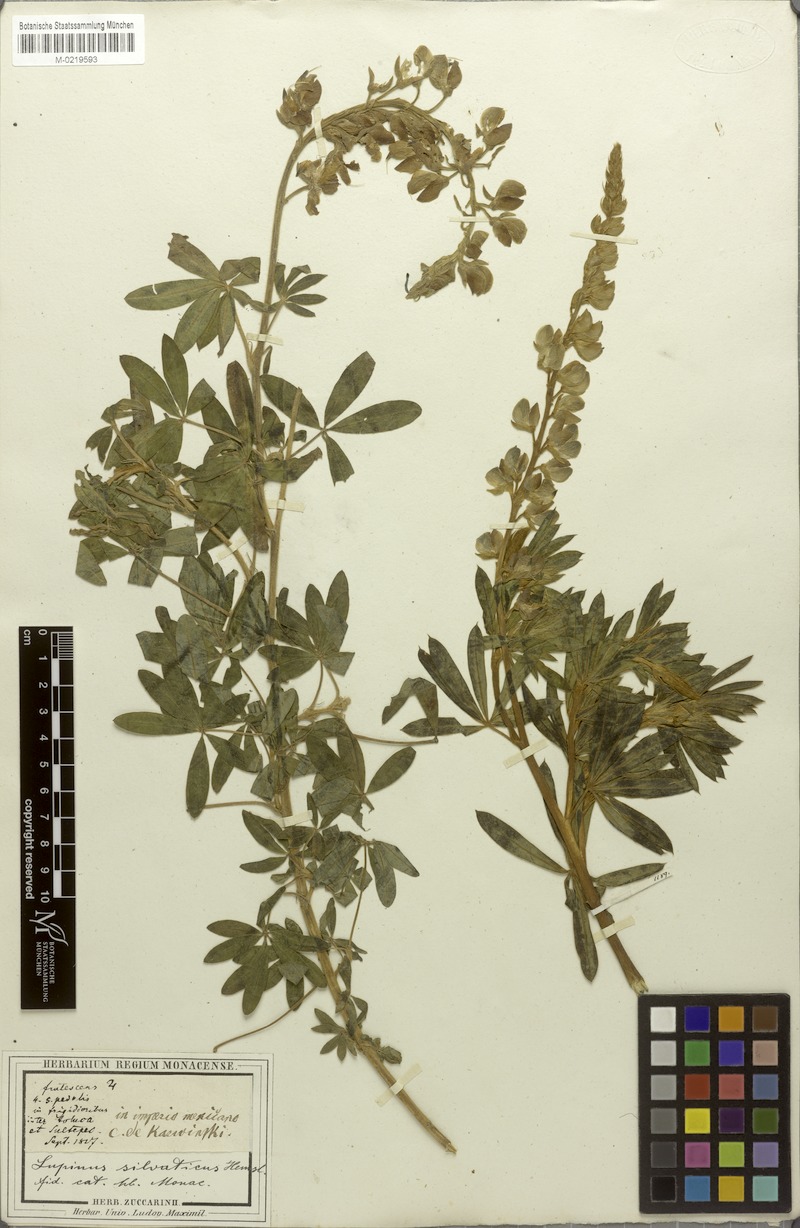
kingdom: Plantae
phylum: Tracheophyta
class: Magnoliopsida
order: Fabales
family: Fabaceae
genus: Lupinus
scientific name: Lupinus montanus
